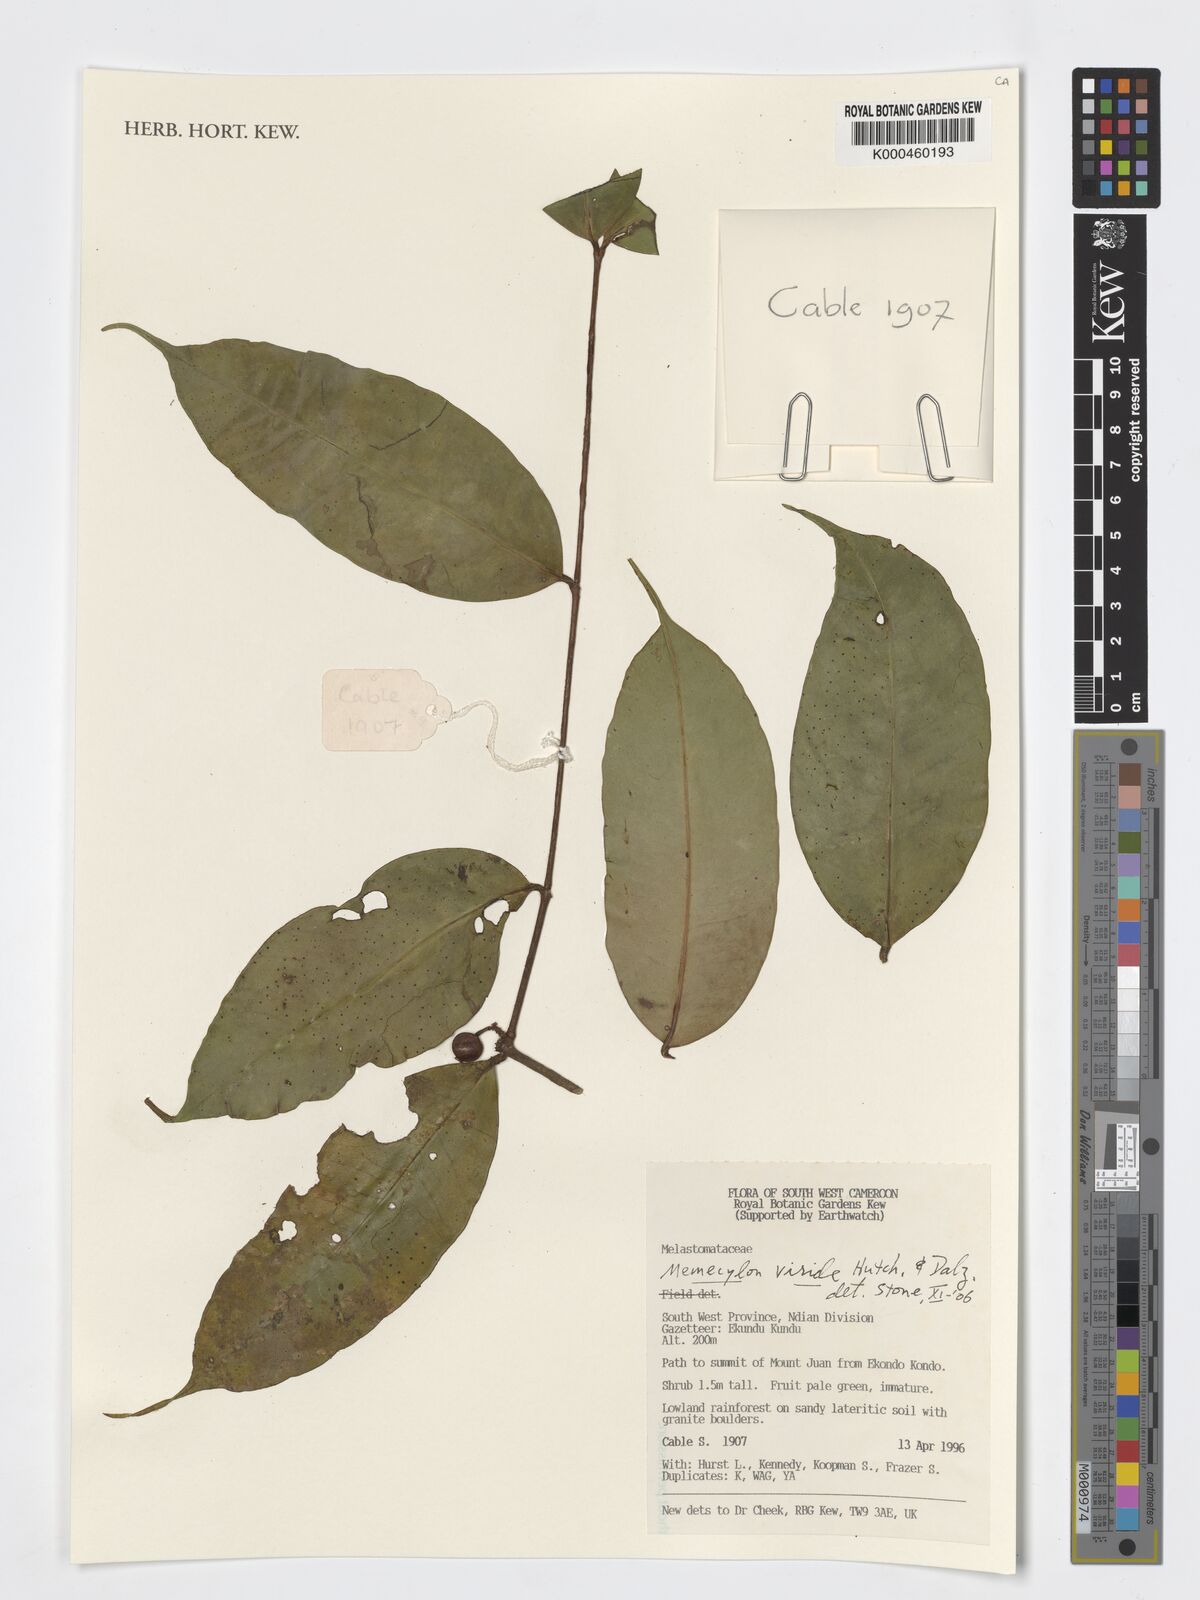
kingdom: Plantae
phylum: Tracheophyta
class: Magnoliopsida
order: Myrtales
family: Melastomataceae
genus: Memecylon
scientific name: Memecylon viride
